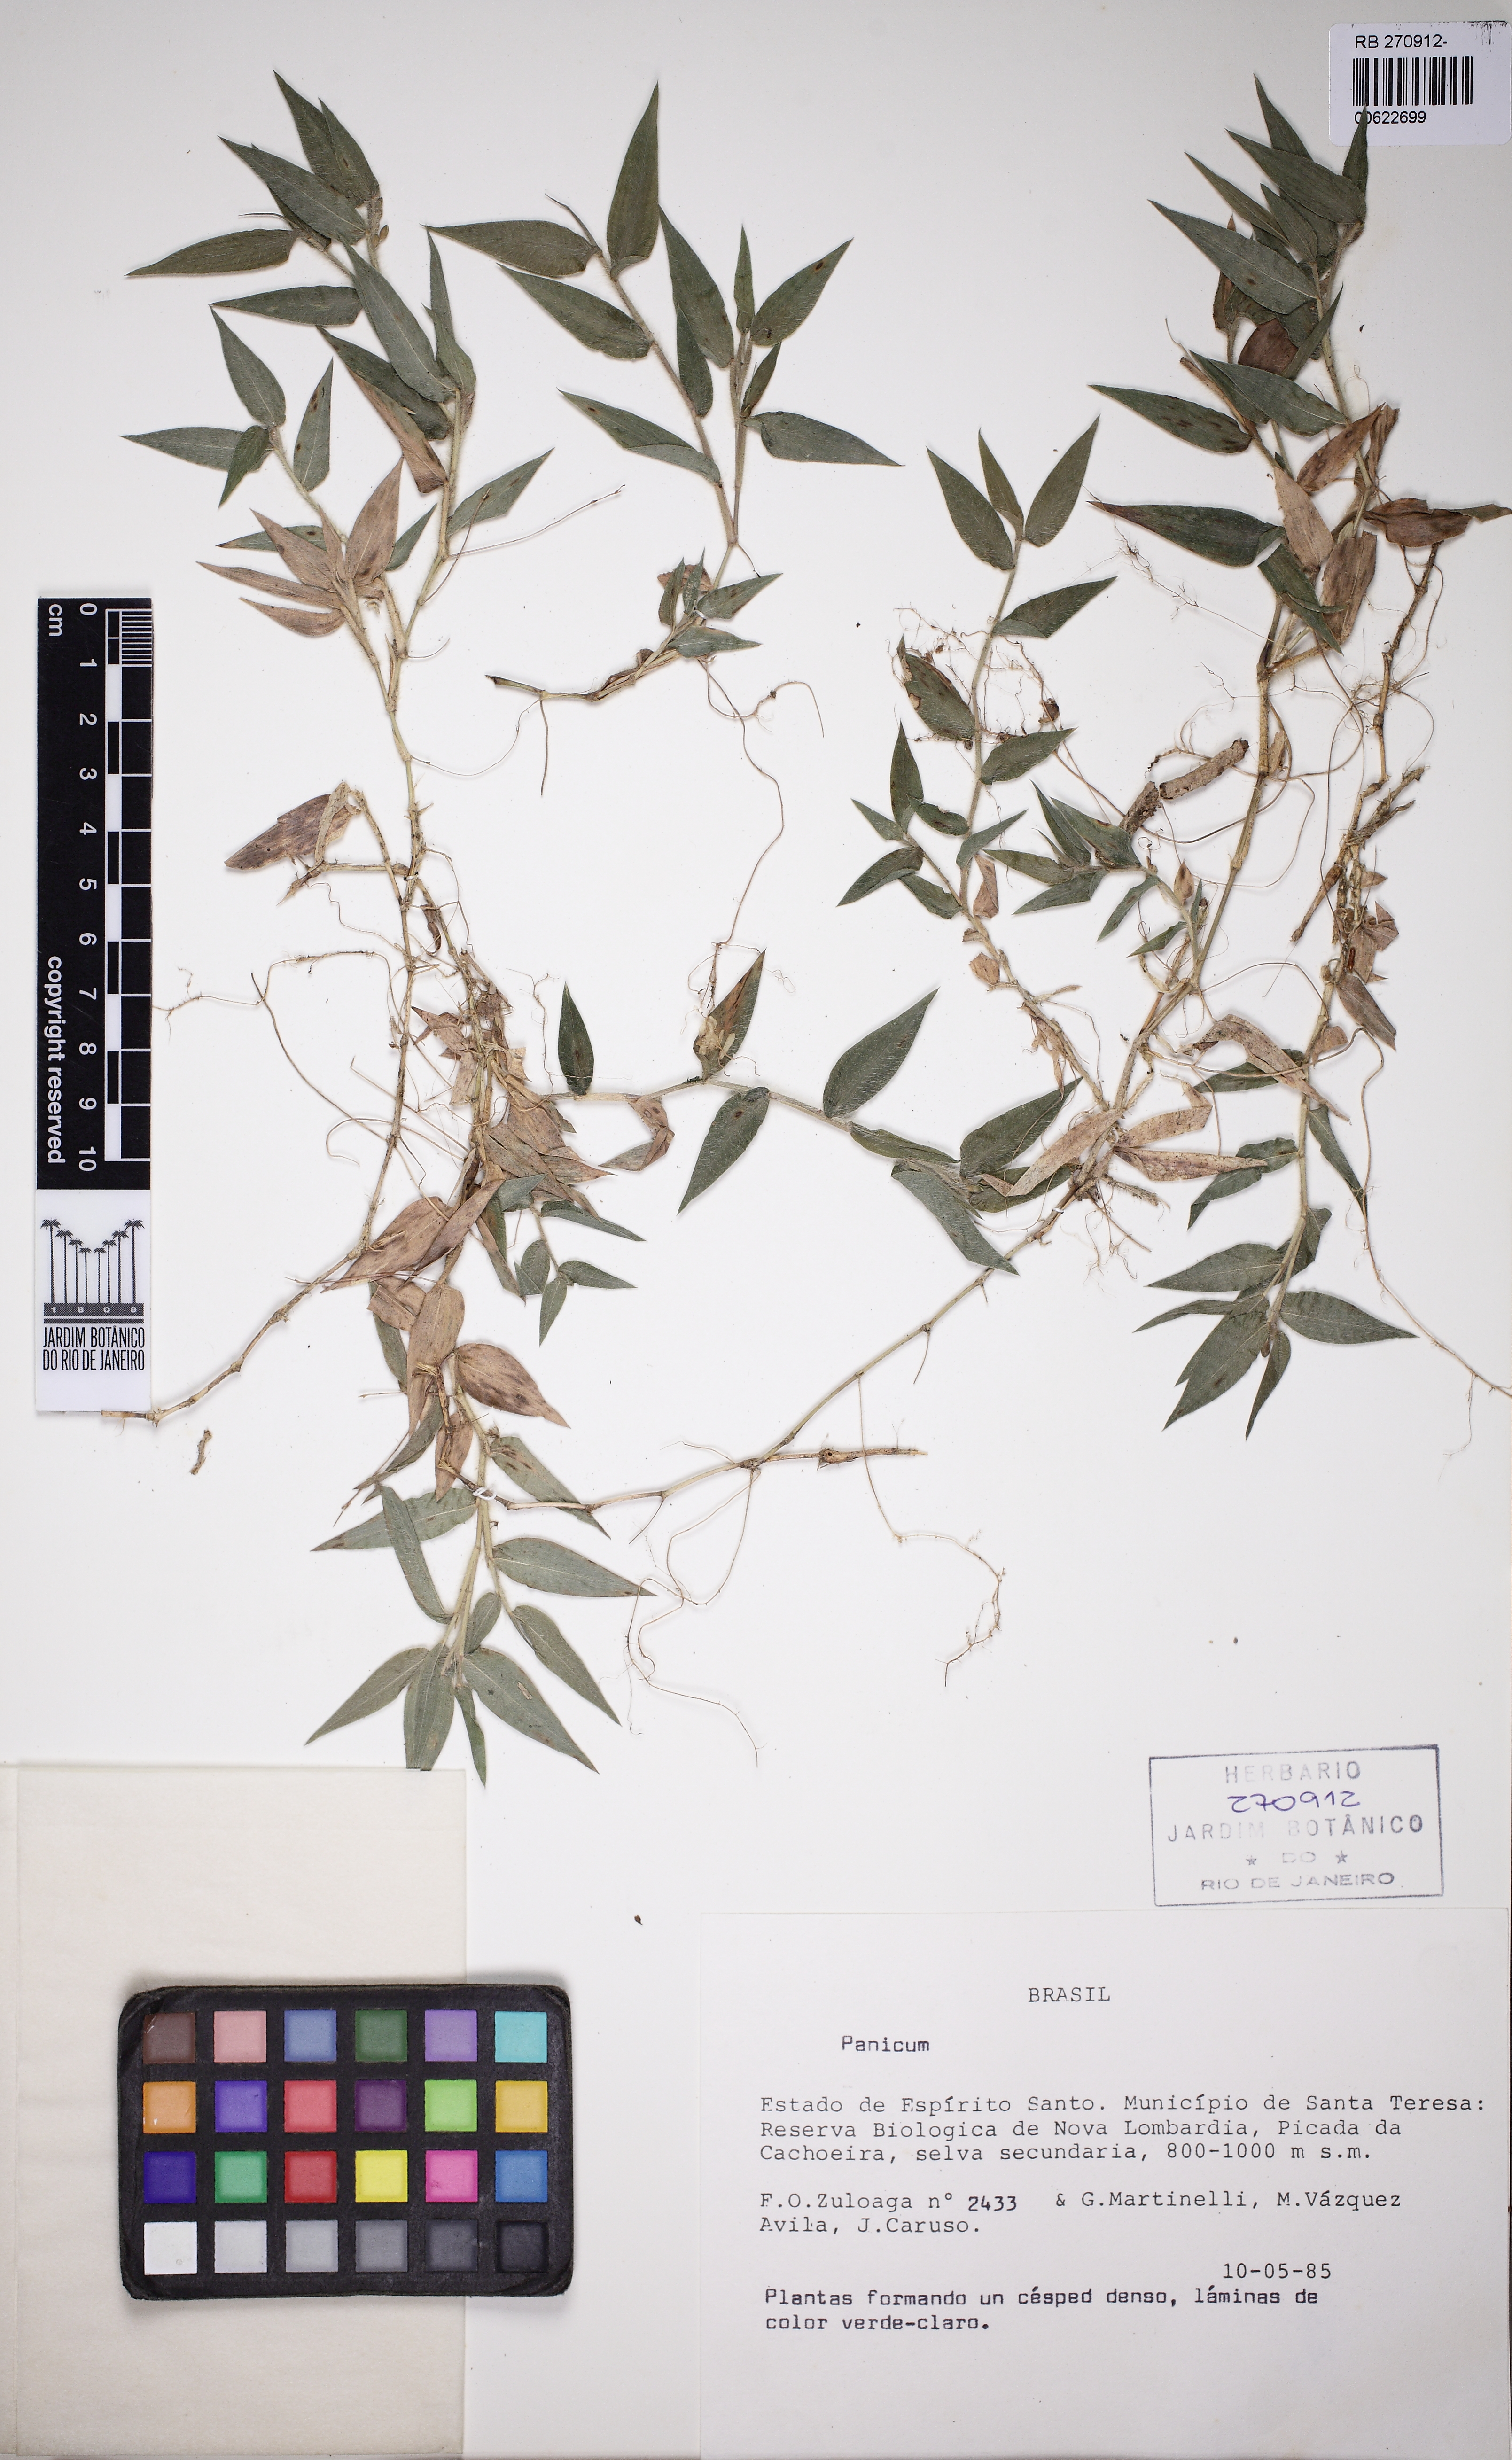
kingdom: Plantae
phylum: Tracheophyta
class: Liliopsida
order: Poales
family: Poaceae
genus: Parodiophyllochloa
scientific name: Parodiophyllochloa pantricha
